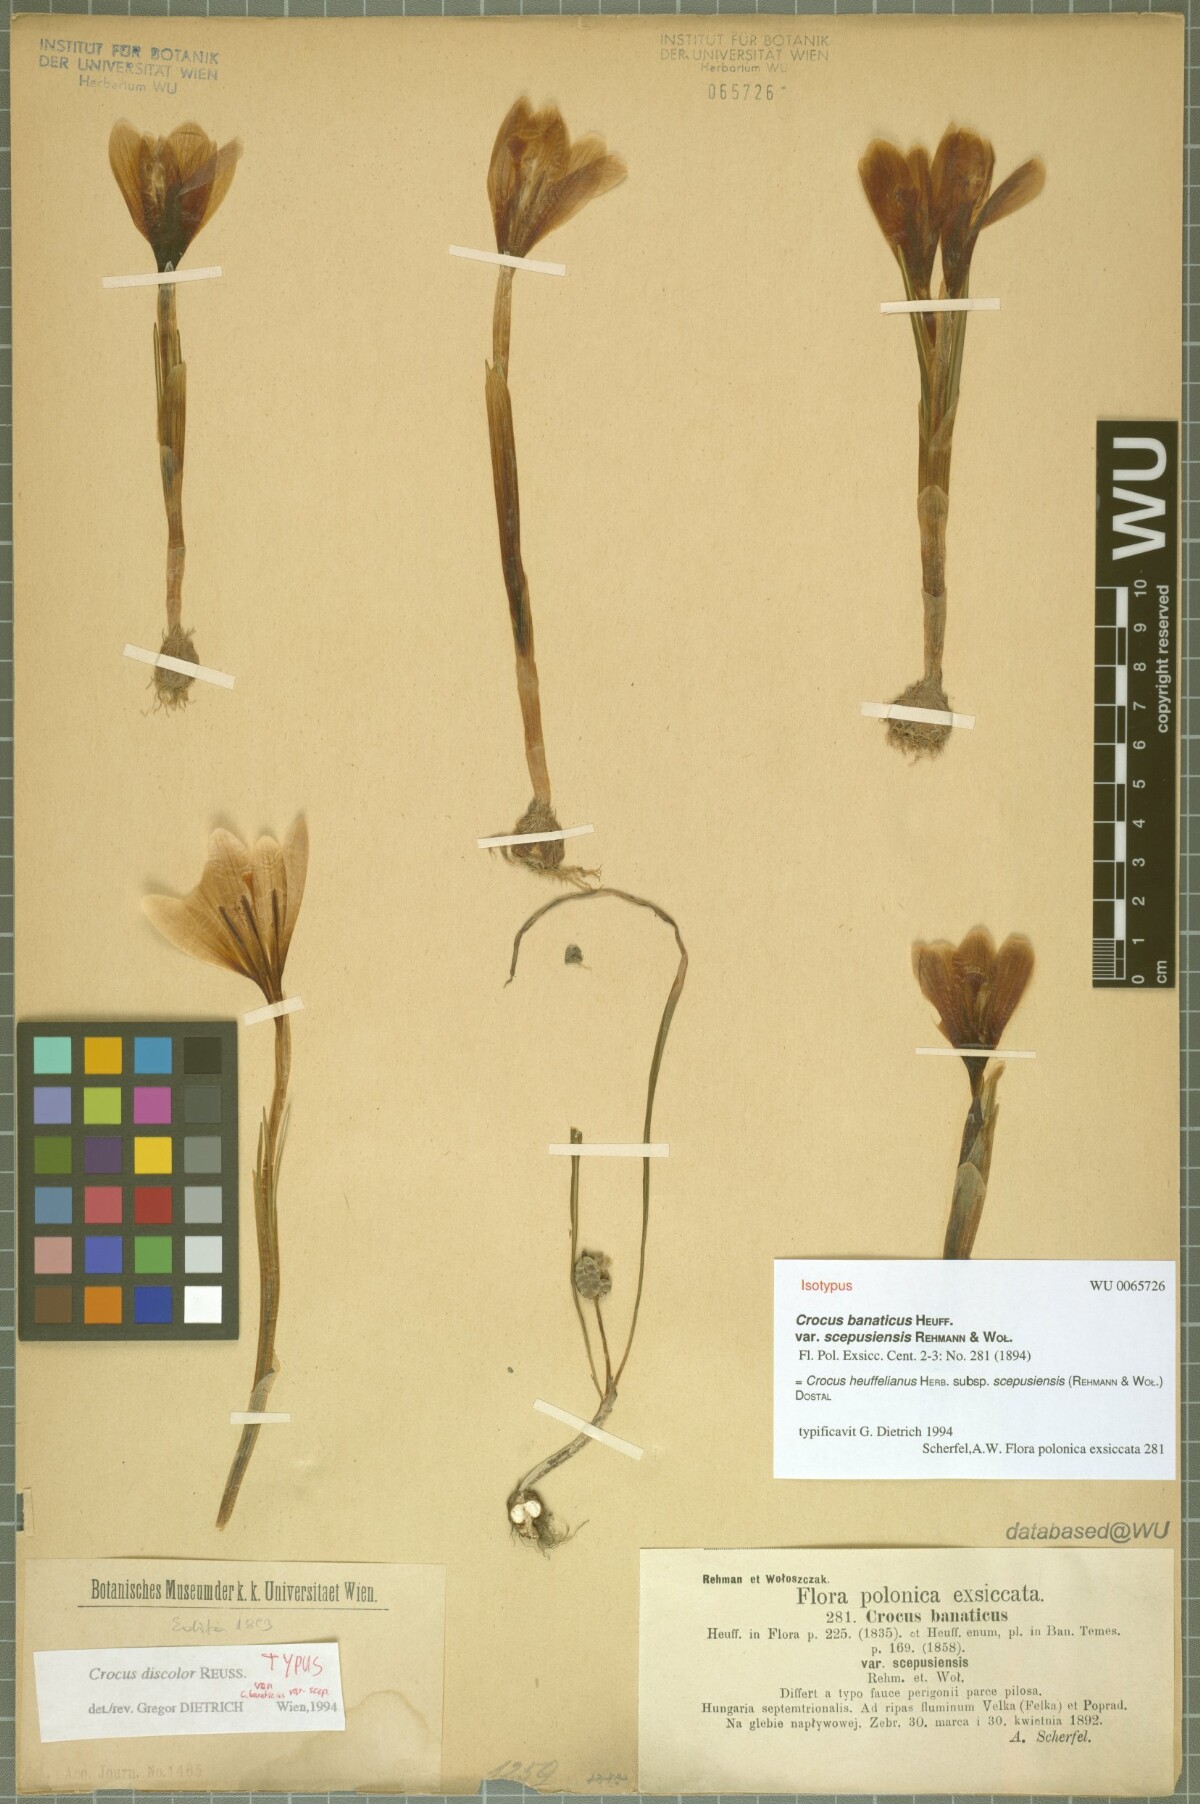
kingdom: Plantae
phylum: Tracheophyta
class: Liliopsida
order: Asparagales
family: Iridaceae
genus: Crocus
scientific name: Crocus heuffelianus
